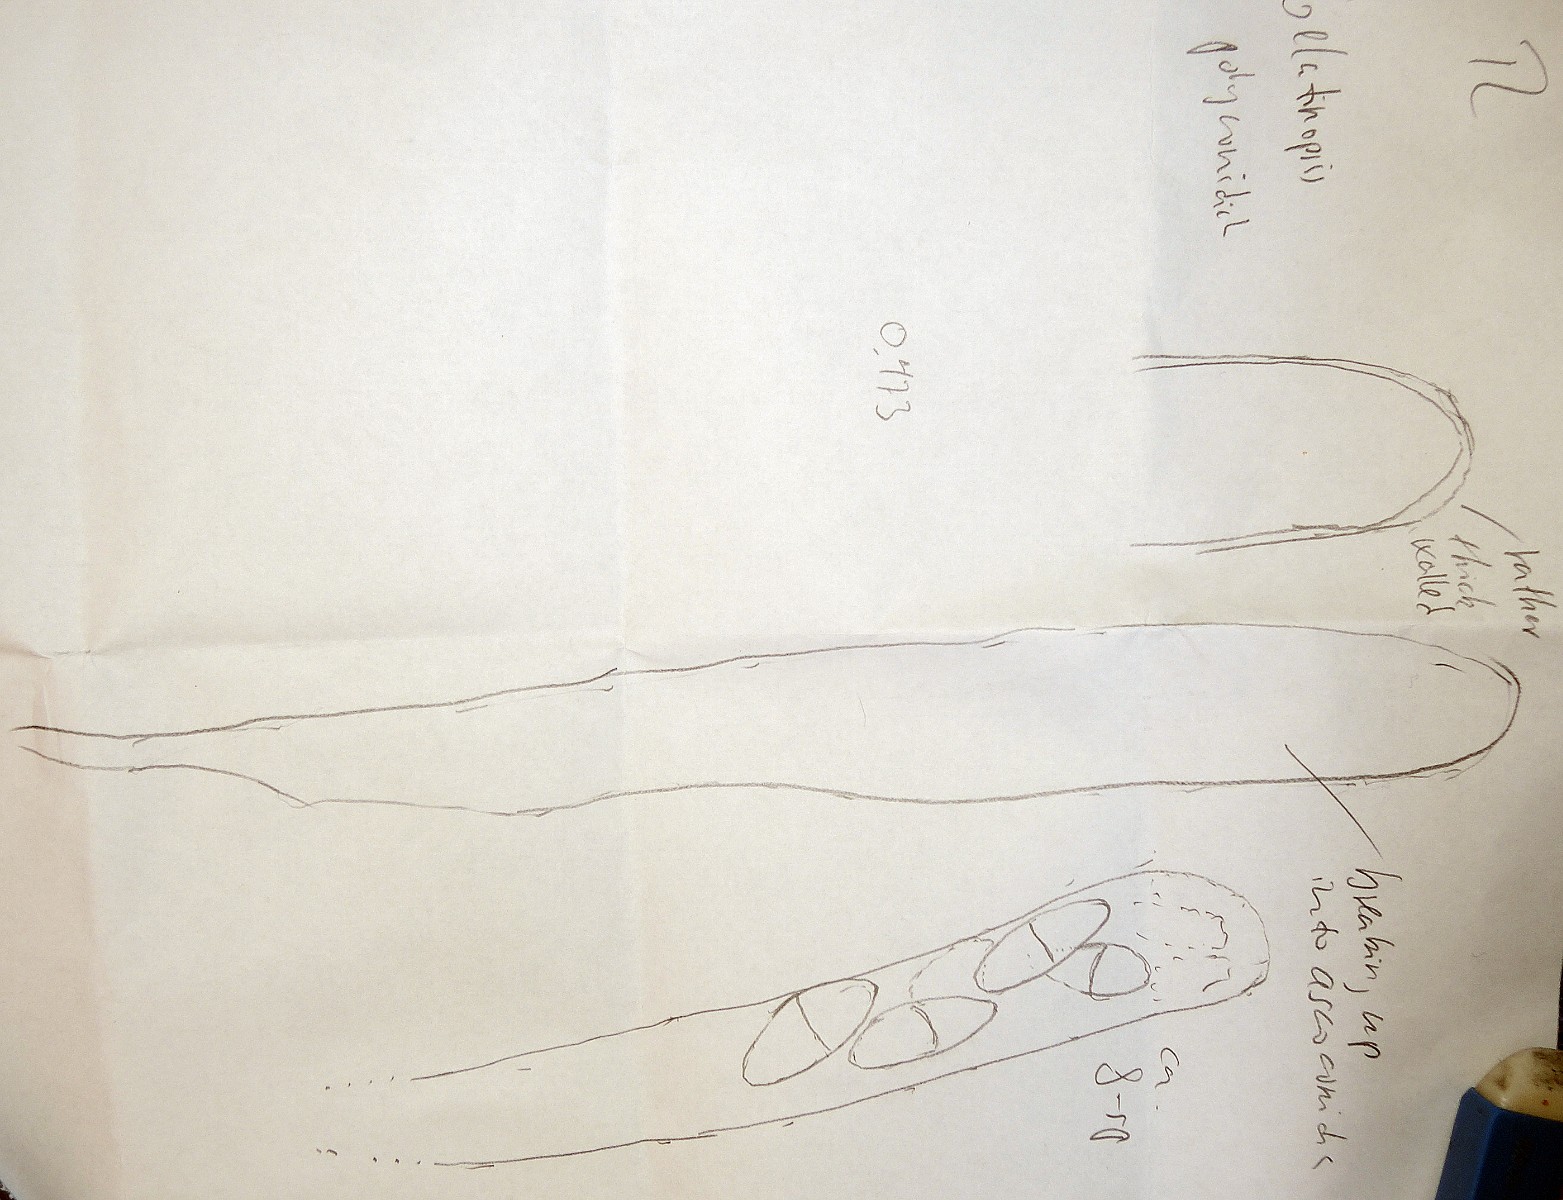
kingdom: Fungi
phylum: Ascomycota
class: Leotiomycetes
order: Phacidiales
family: Helicogoniaceae
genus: Gelatinopsis
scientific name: Gelatinopsis polyconidiata
